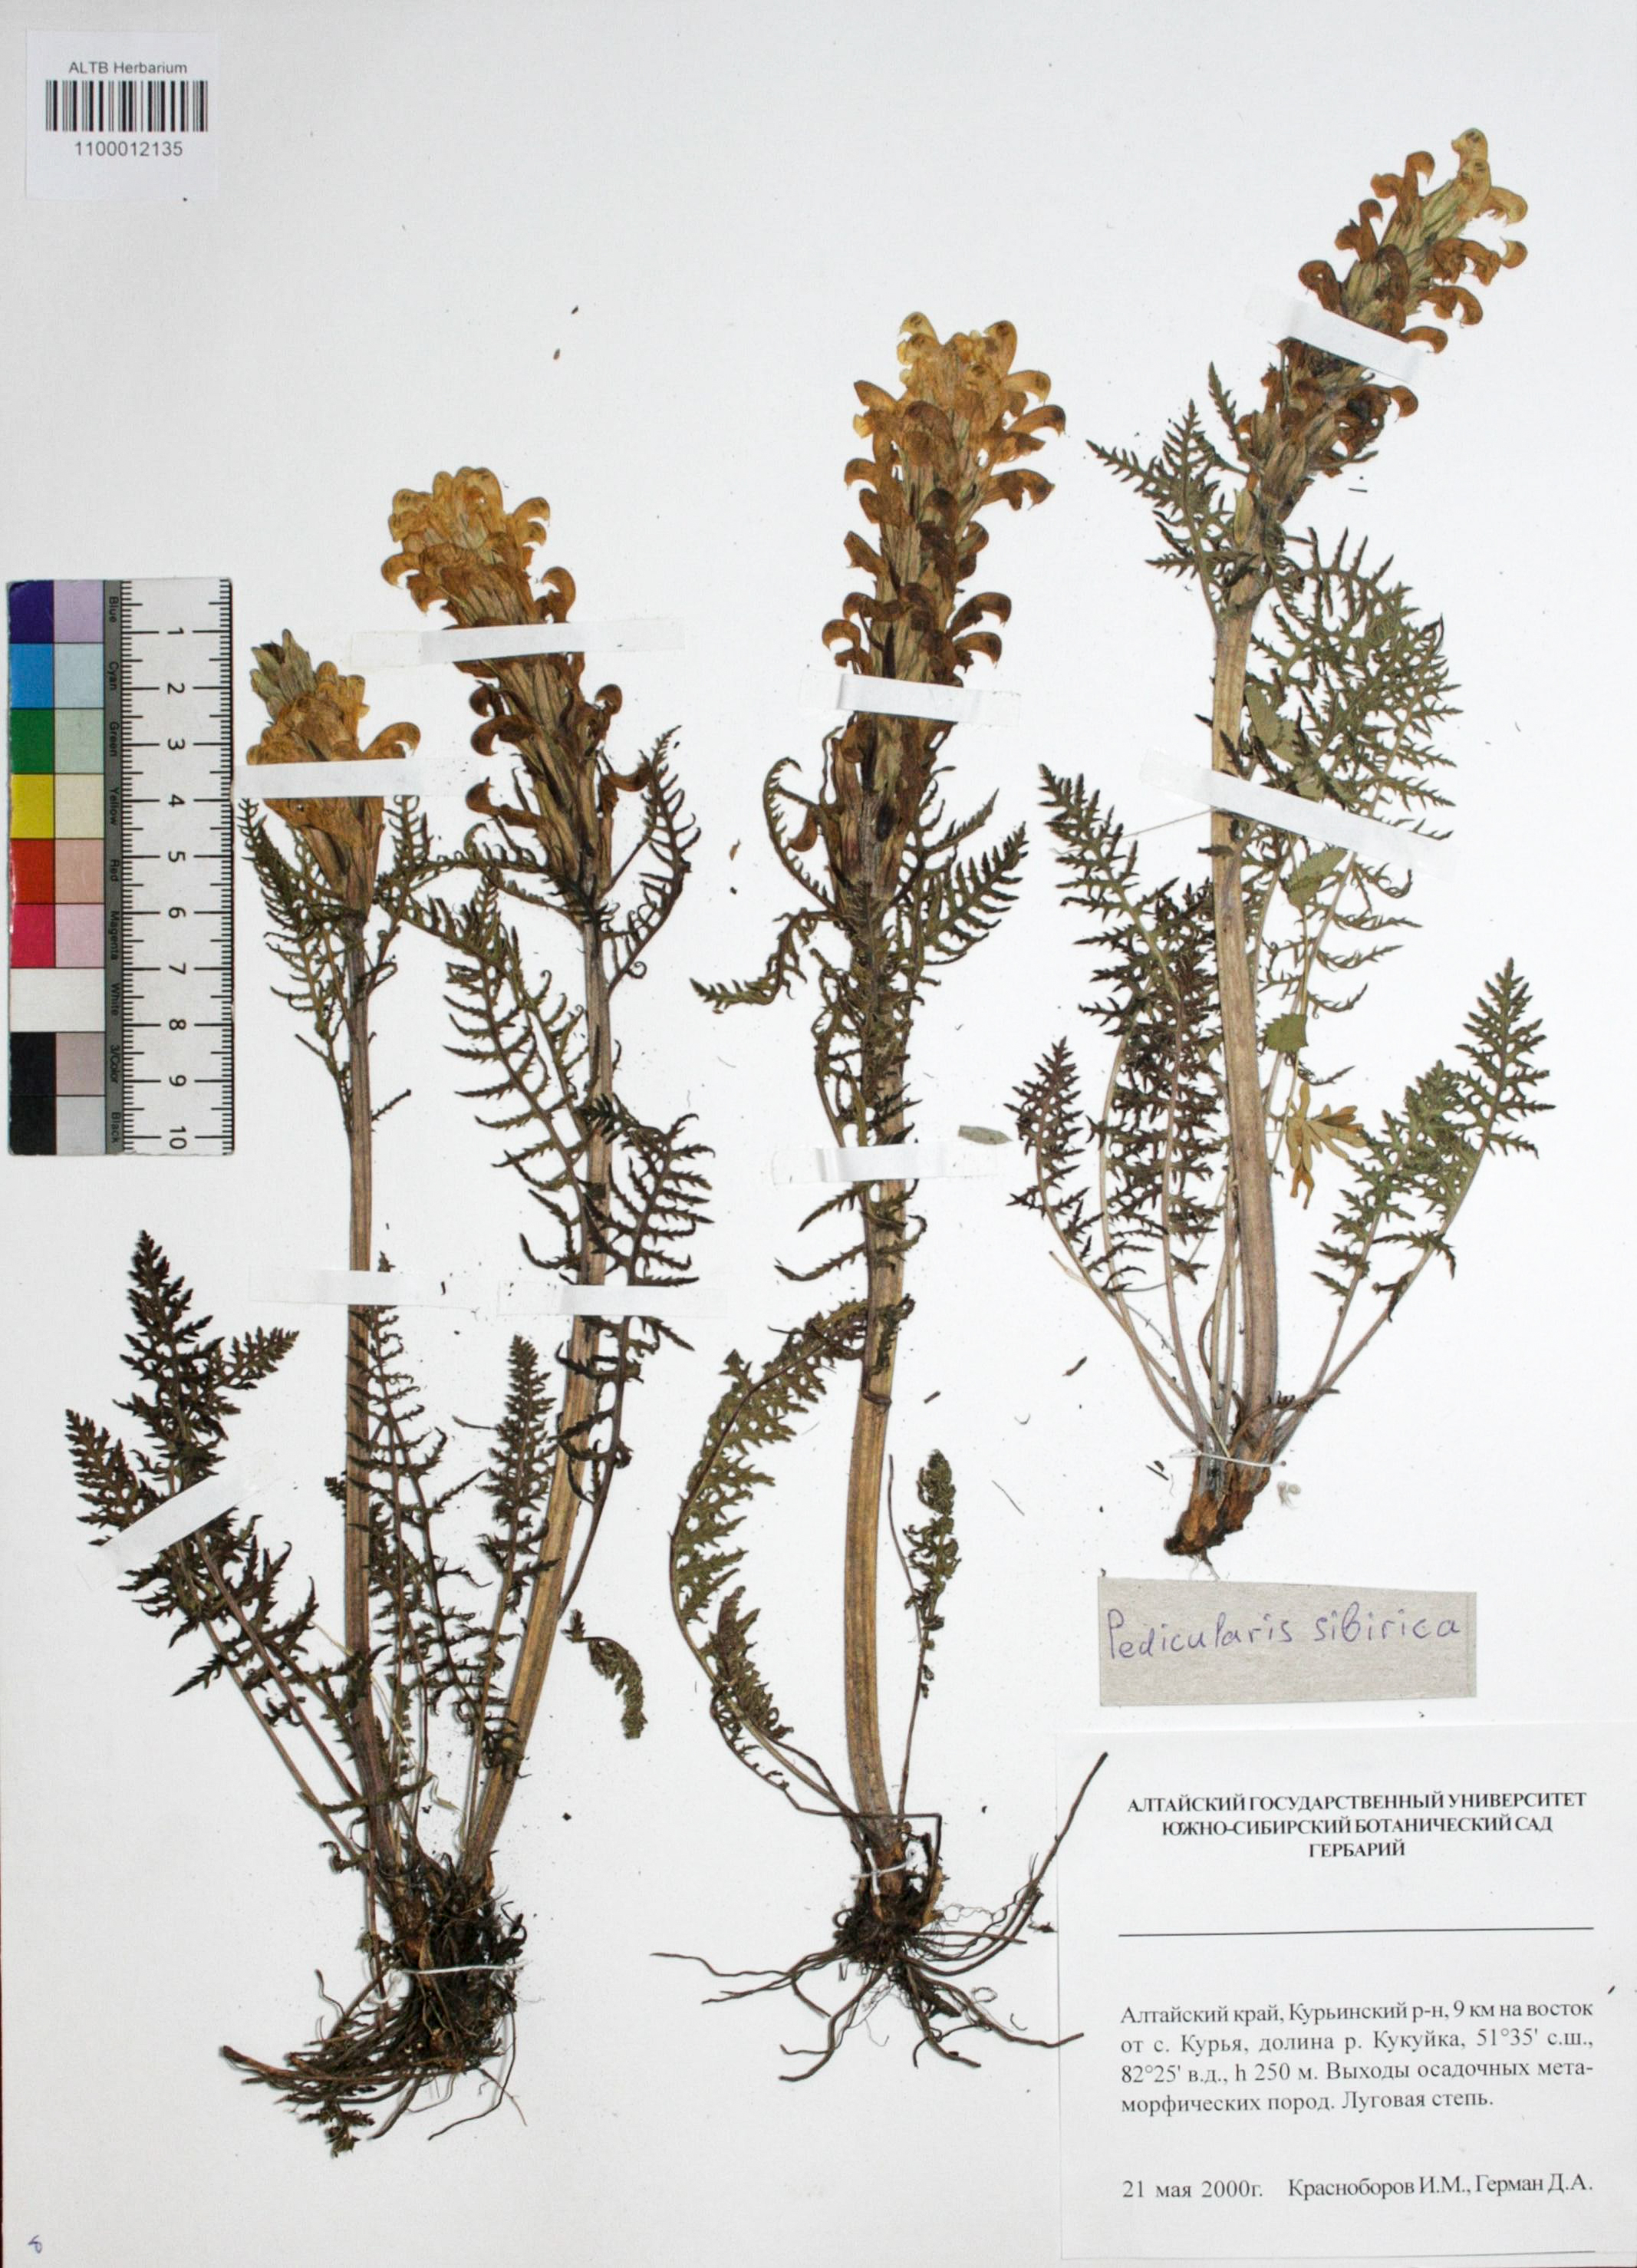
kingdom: Plantae
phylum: Tracheophyta
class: Magnoliopsida
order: Lamiales
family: Orobanchaceae
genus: Pedicularis
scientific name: Pedicularis sibirica
